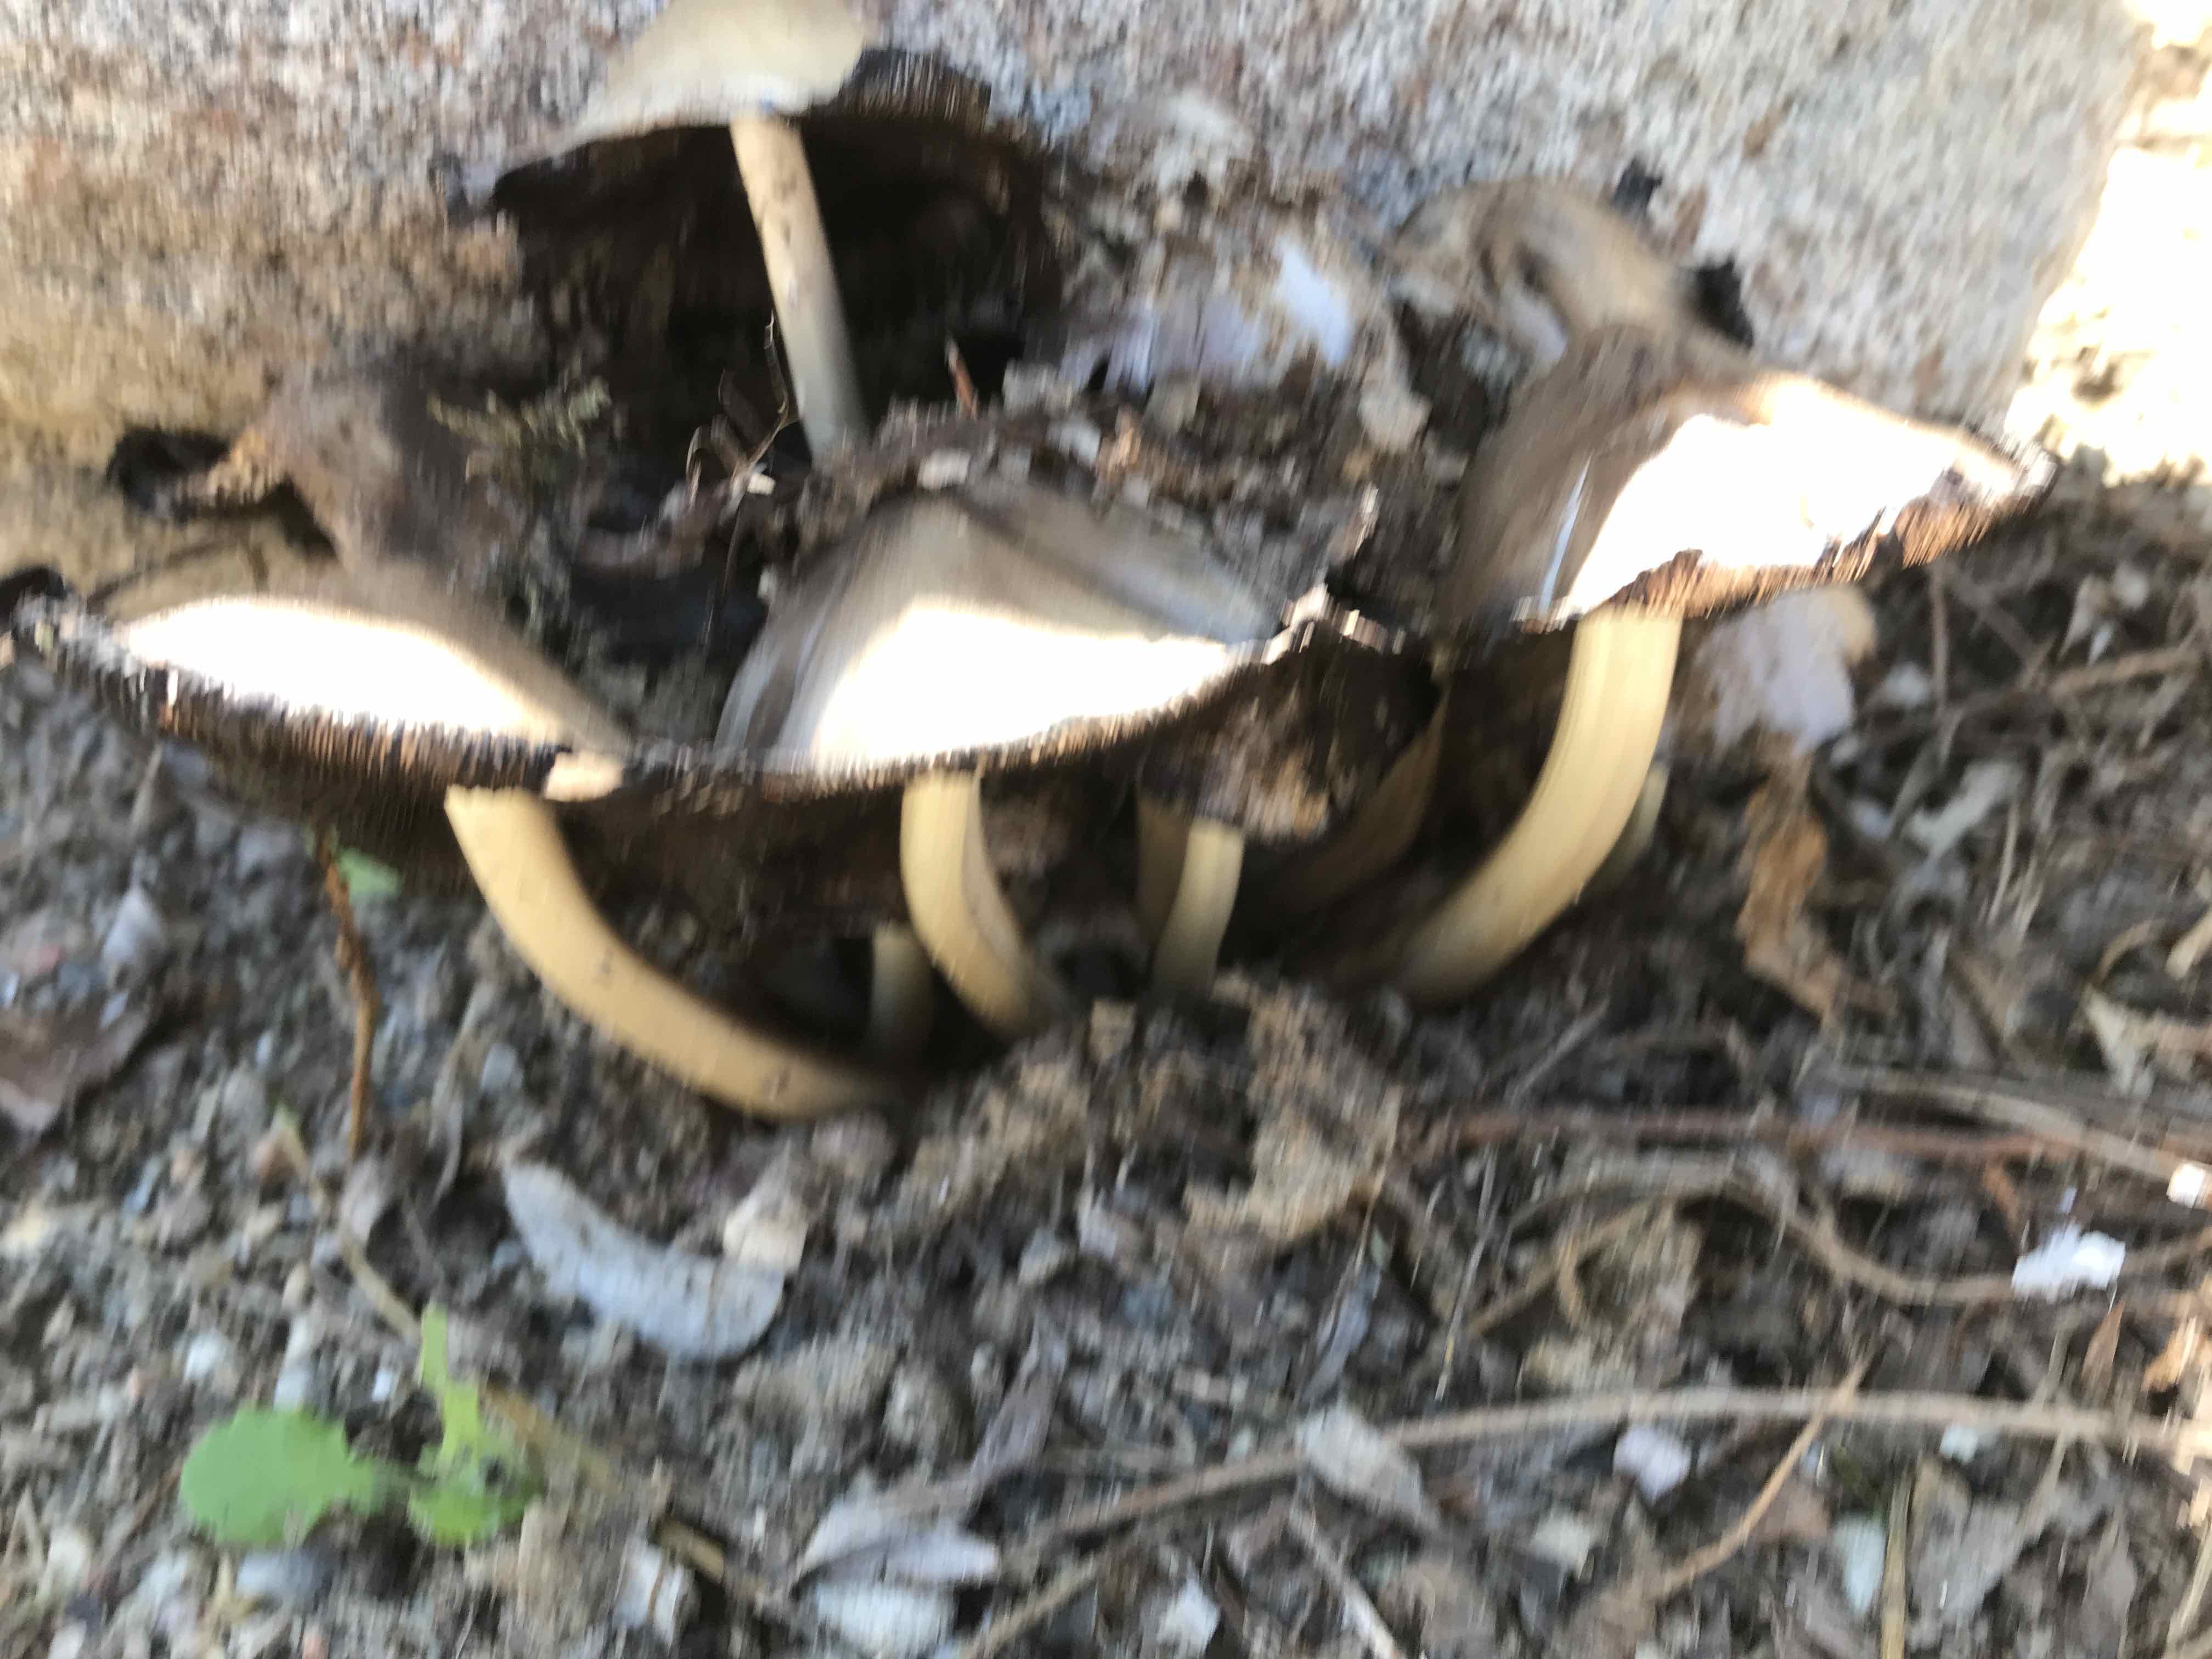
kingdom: Fungi
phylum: Basidiomycota
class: Agaricomycetes
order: Agaricales
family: Psathyrellaceae
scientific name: Psathyrellaceae
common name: mørkhatfamilien
